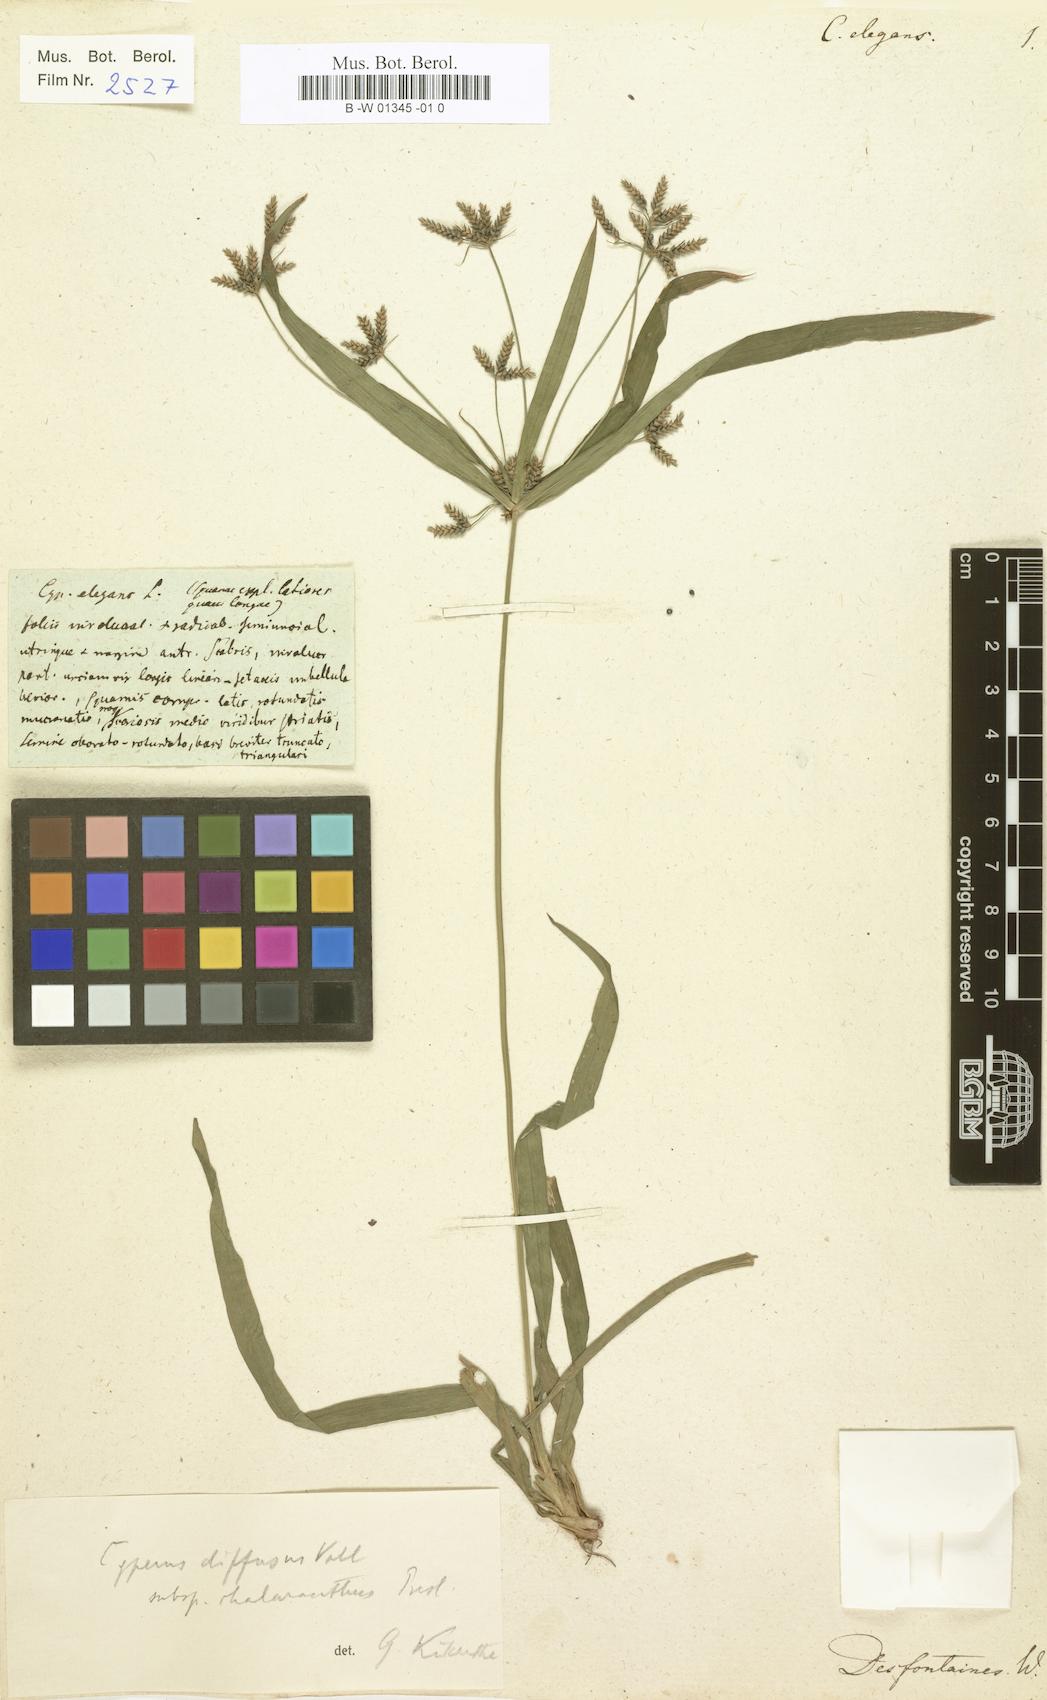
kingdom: Plantae
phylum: Tracheophyta
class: Liliopsida
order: Poales
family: Cyperaceae
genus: Cyperus
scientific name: Cyperus elegans
